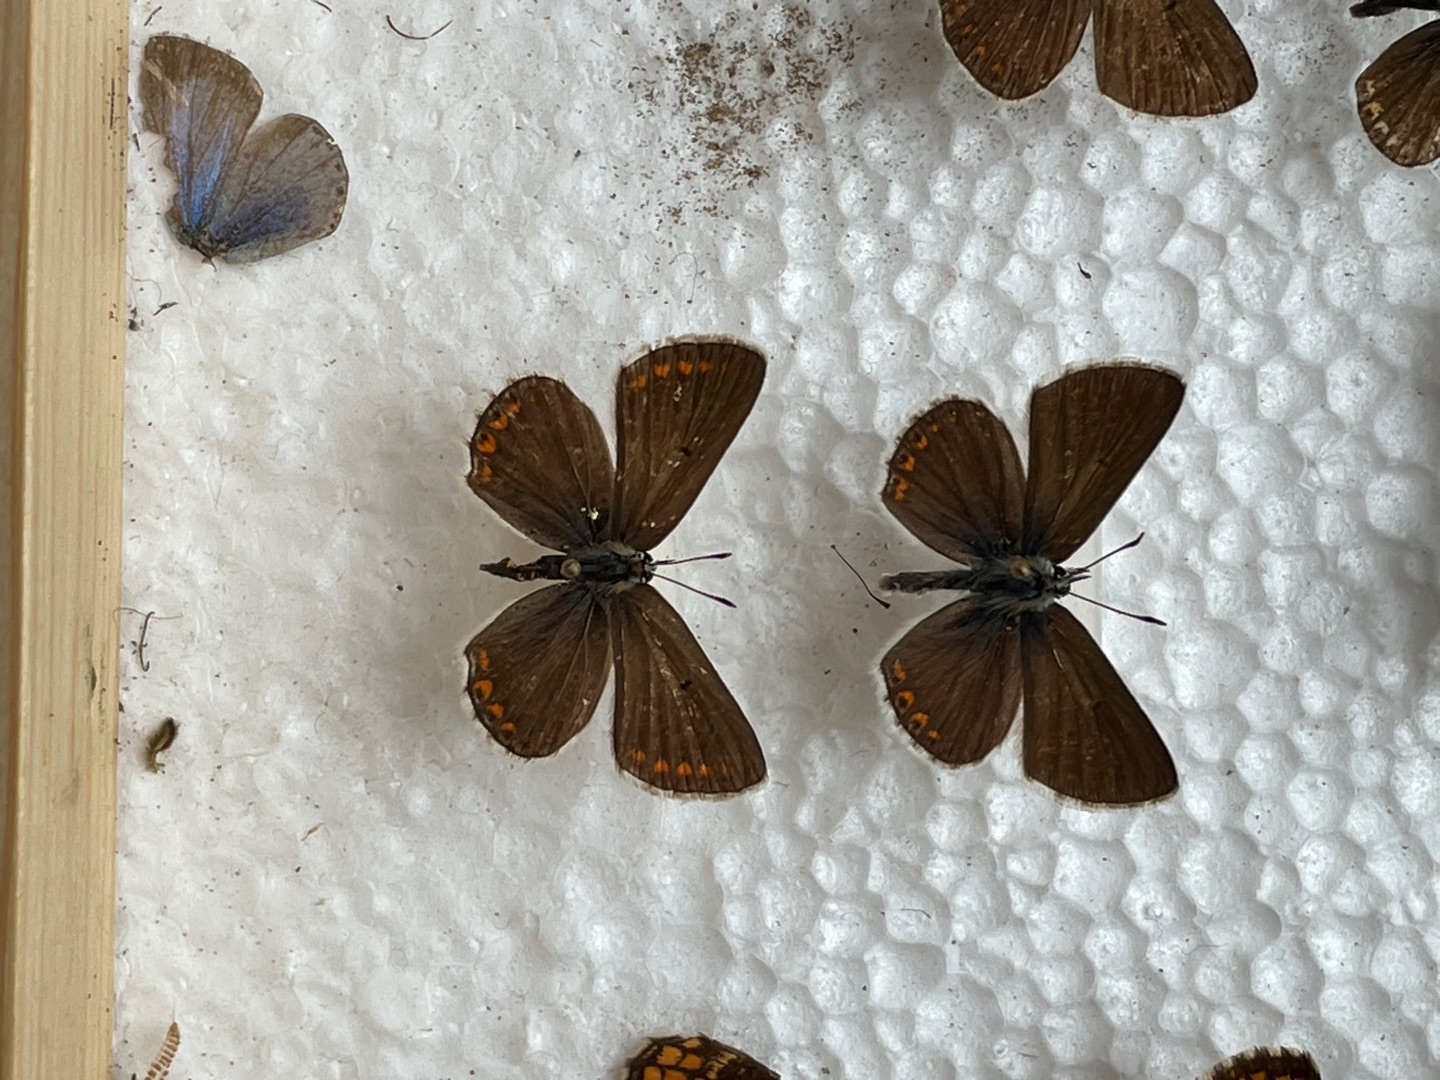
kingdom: Animalia
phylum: Arthropoda
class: Insecta
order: Lepidoptera
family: Lycaenidae
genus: Aricia
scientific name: Aricia artaxerxes
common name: Sortbrun blåfugl
